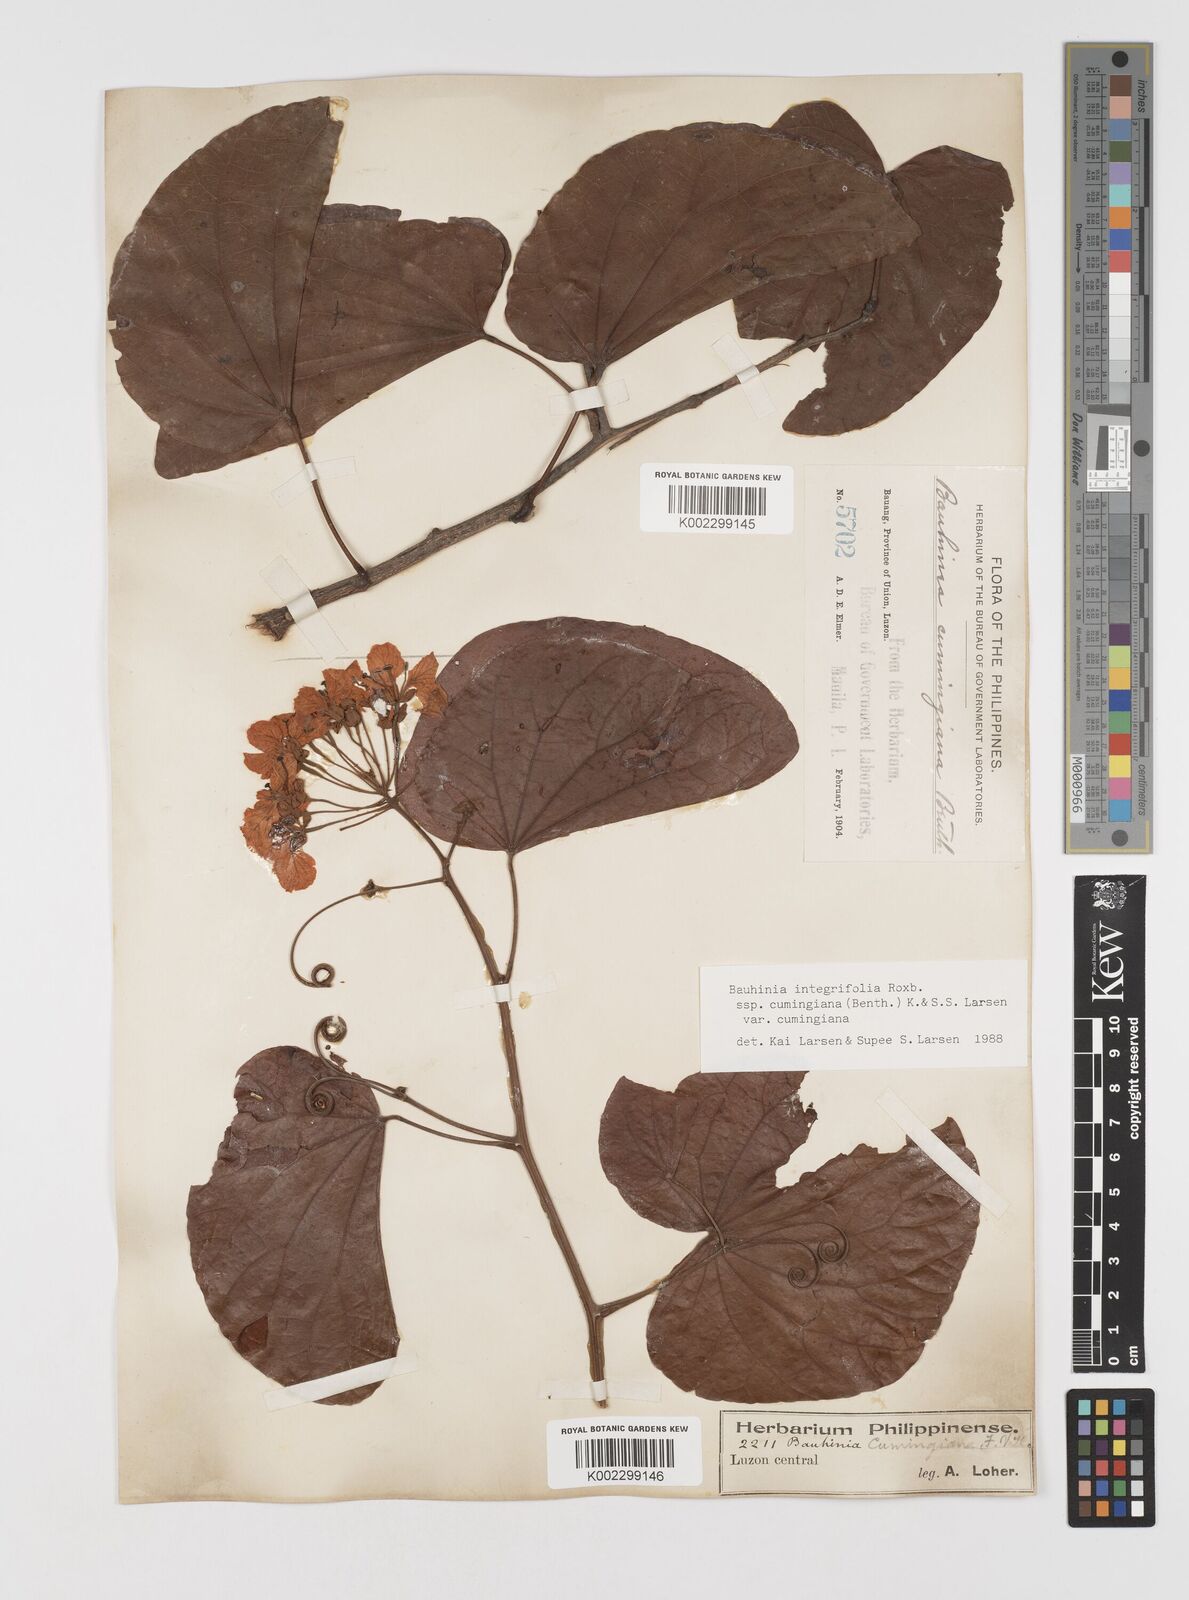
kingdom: Plantae
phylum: Tracheophyta
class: Magnoliopsida
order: Fabales
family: Fabaceae
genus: Phanera
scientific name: Phanera integrifolia
